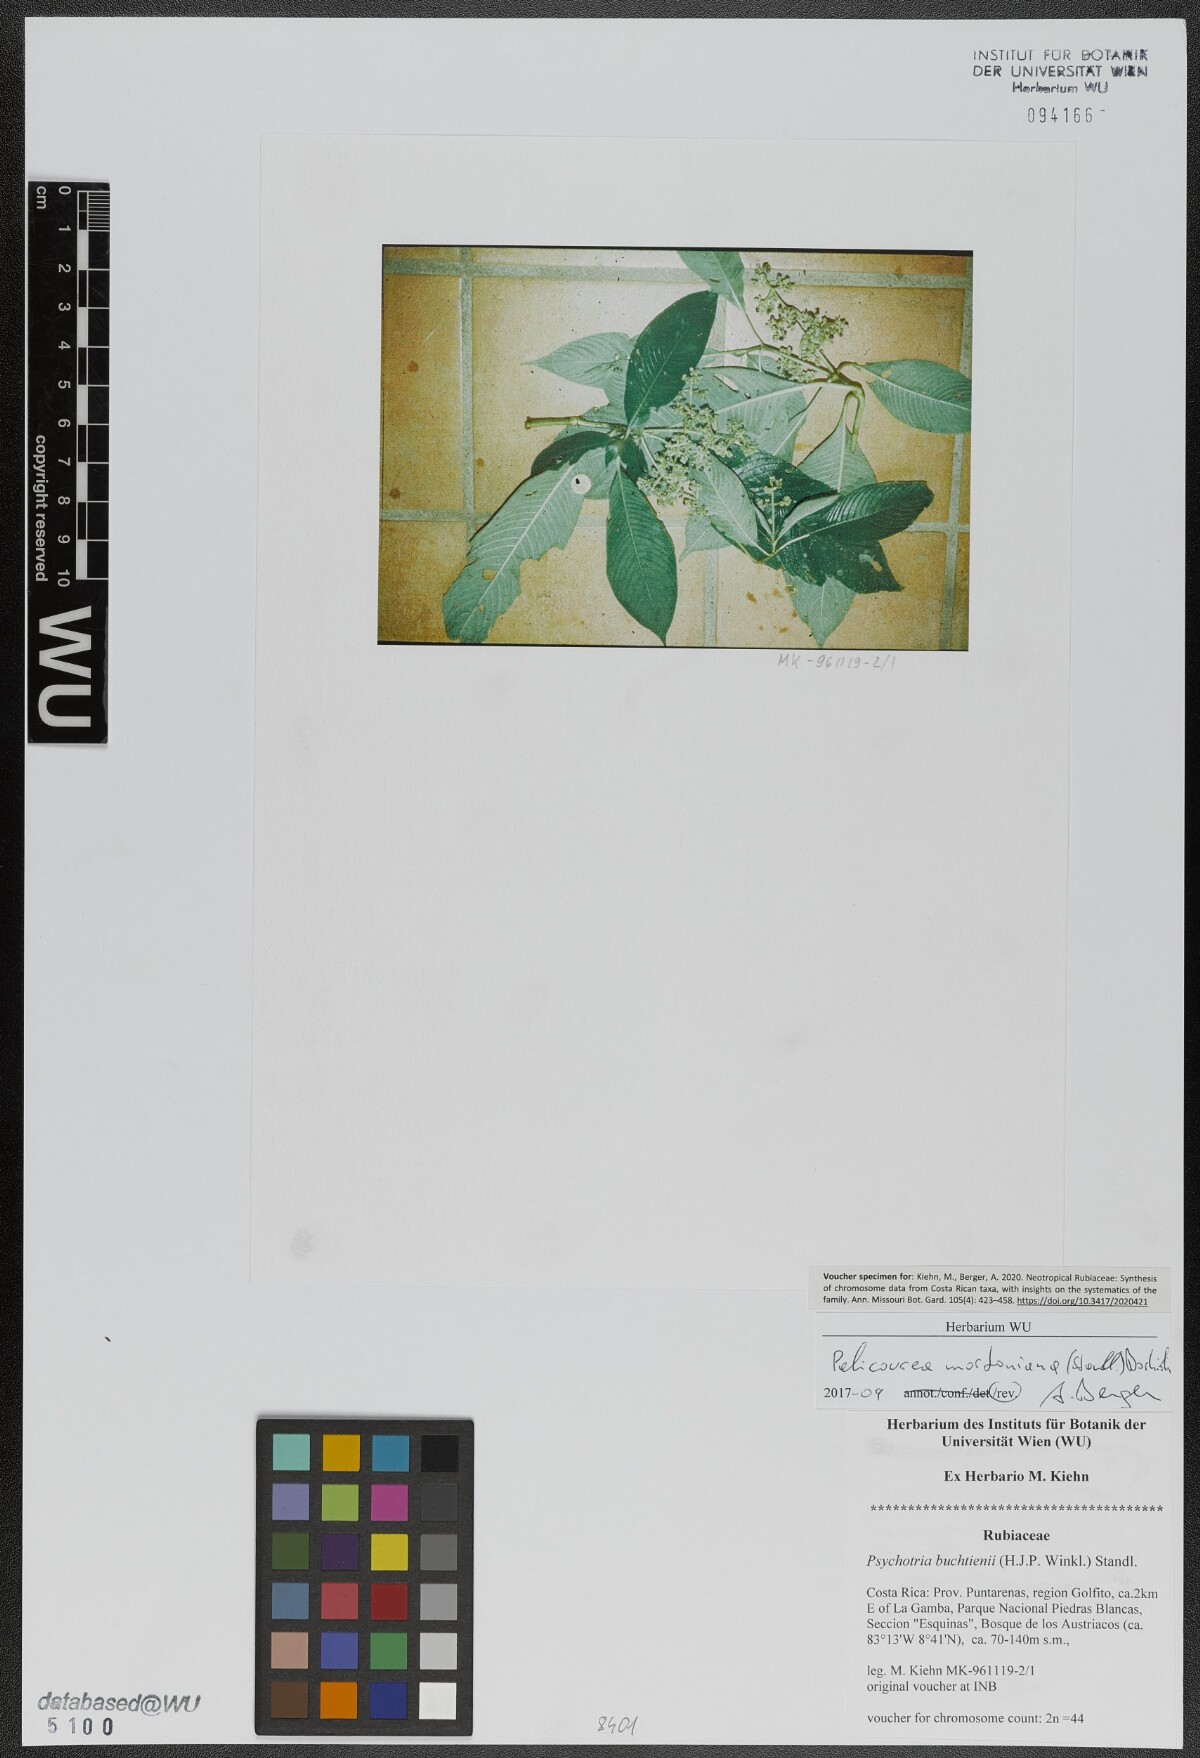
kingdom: Plantae
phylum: Tracheophyta
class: Magnoliopsida
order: Gentianales
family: Rubiaceae
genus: Palicourea
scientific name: Palicourea mortoniana
